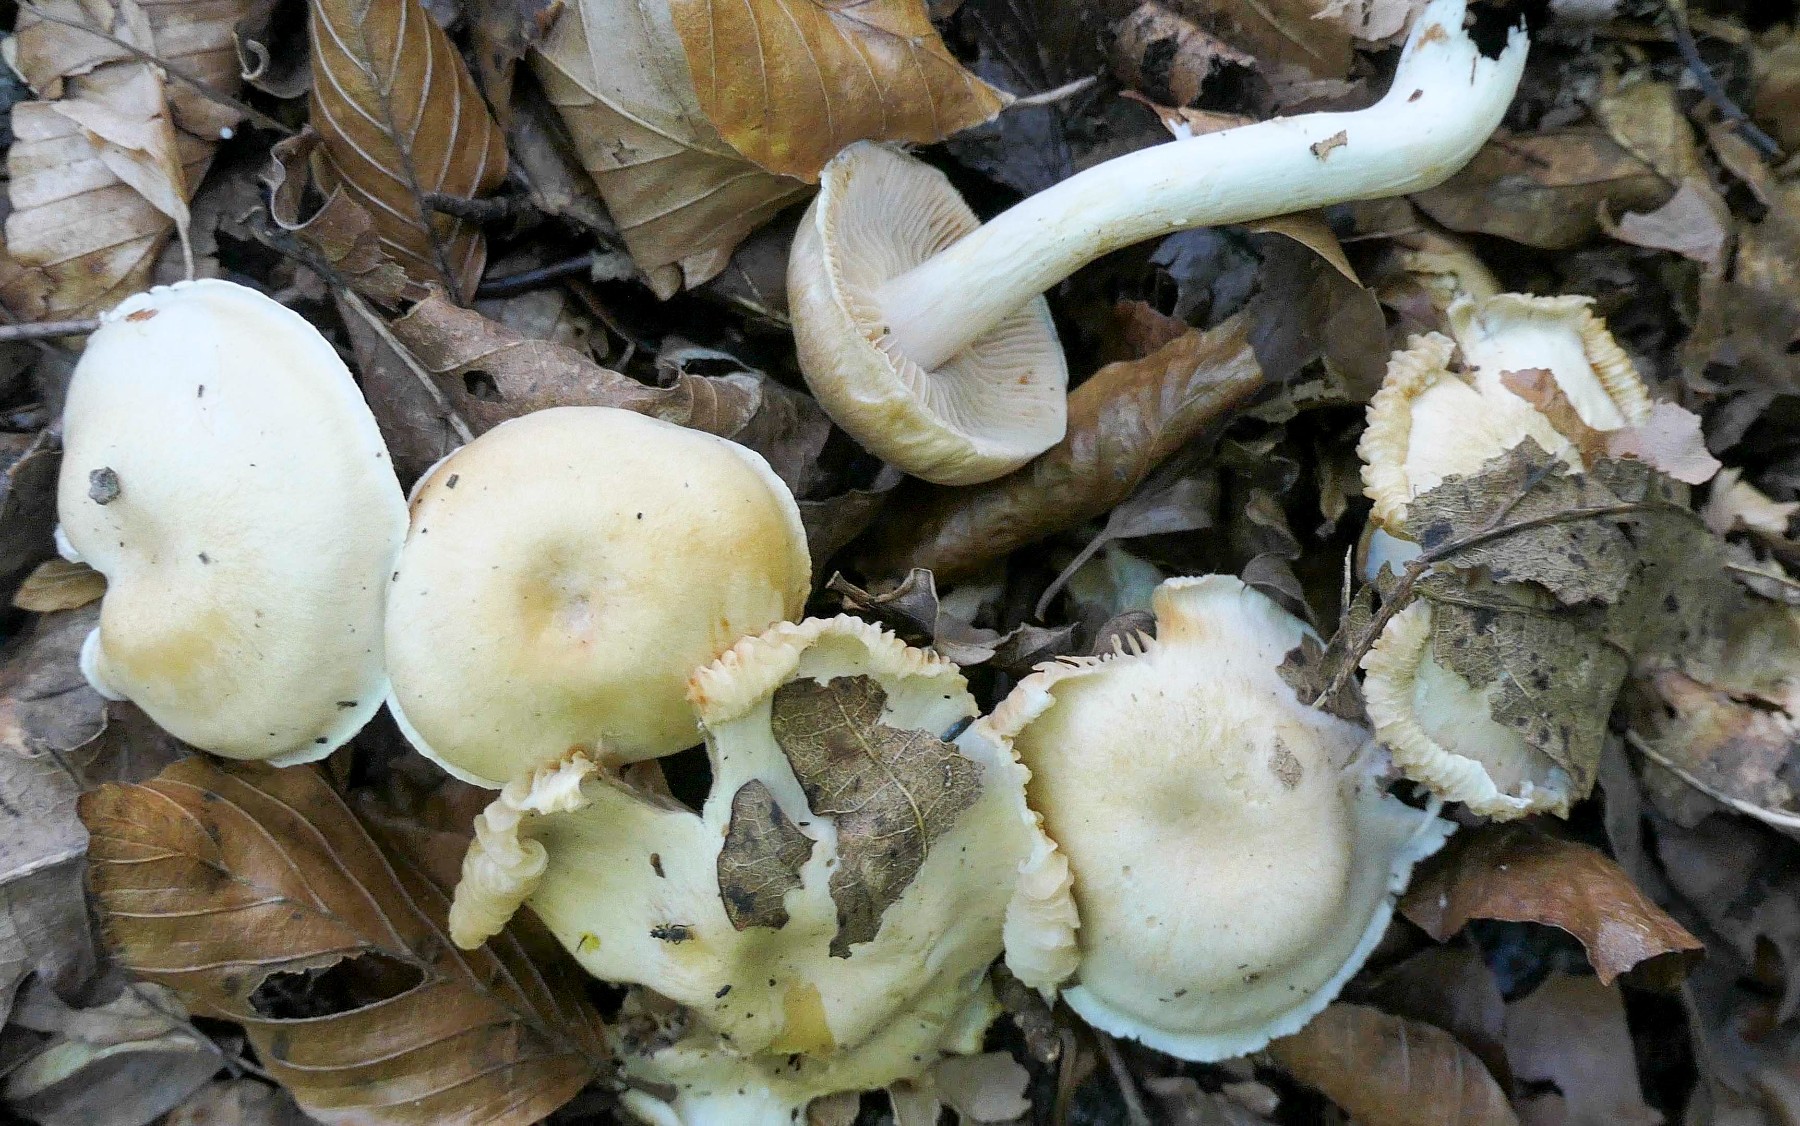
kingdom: Fungi
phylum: Basidiomycota
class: Agaricomycetes
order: Agaricales
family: Cortinariaceae
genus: Thaxterogaster
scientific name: Thaxterogaster barbatus
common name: elfenbens-slørhat
